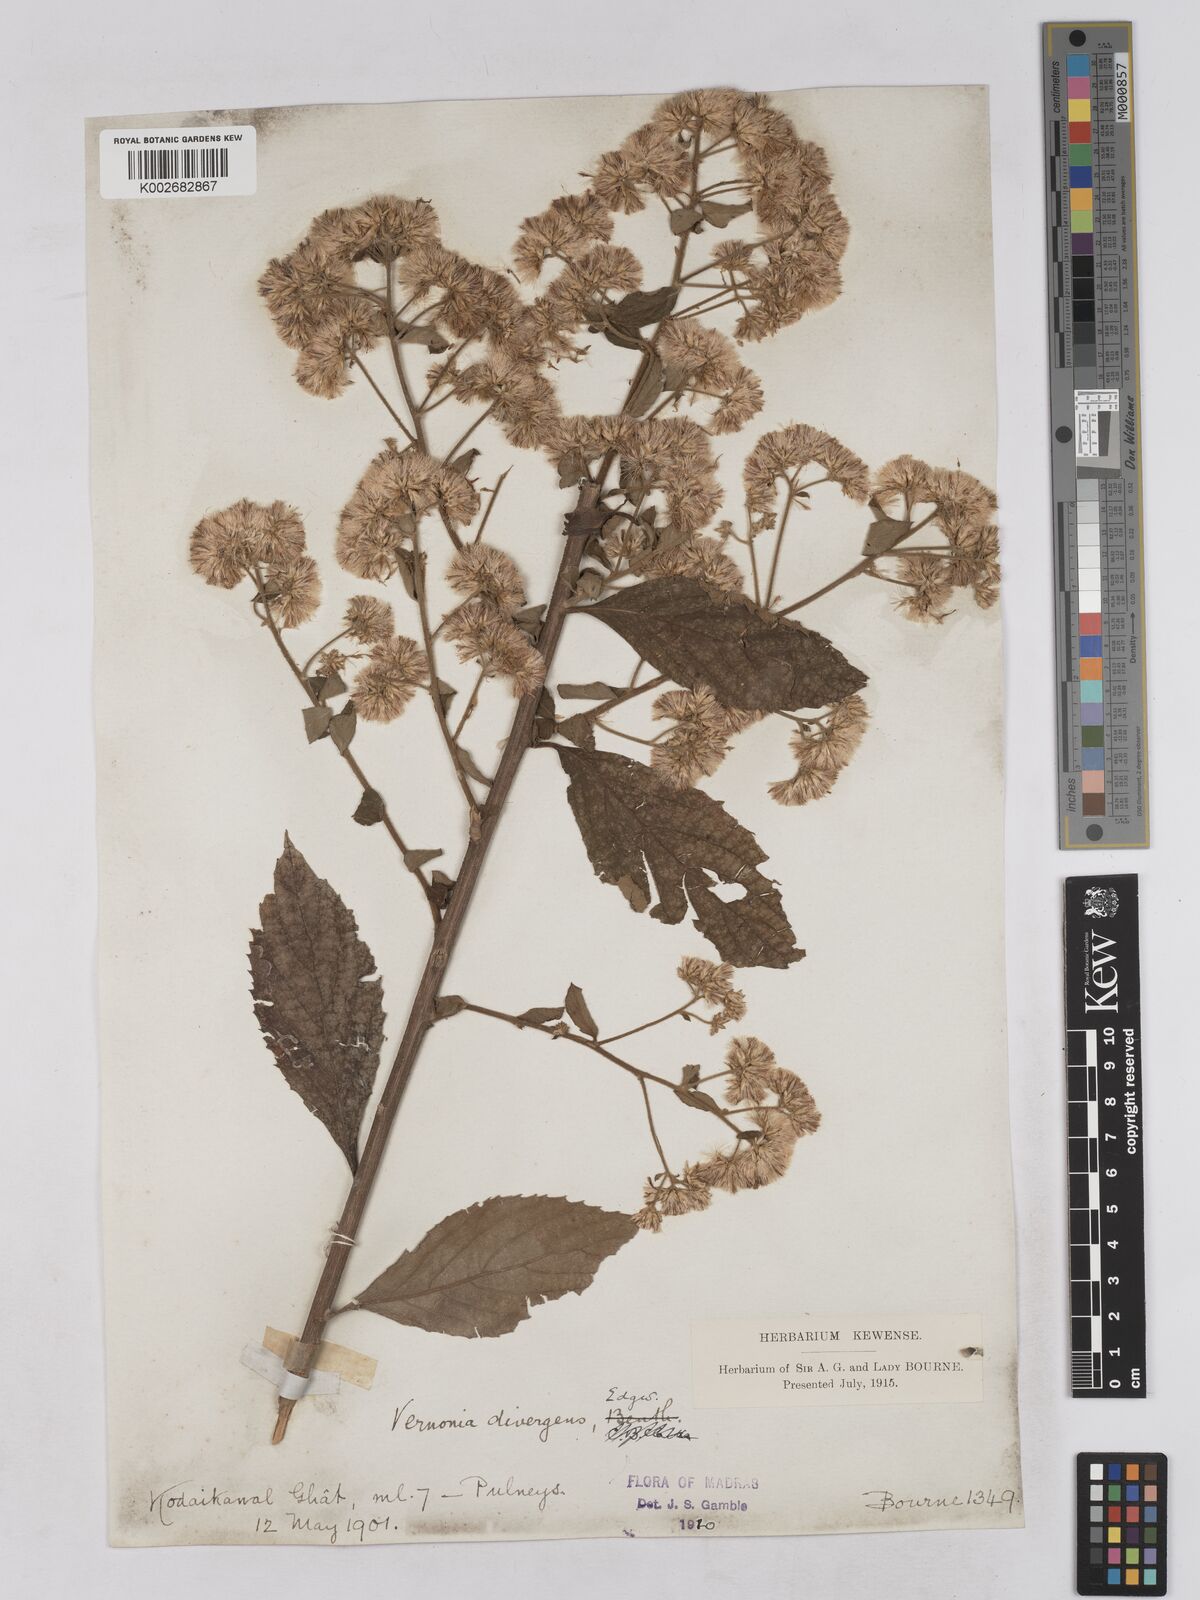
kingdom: Plantae
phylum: Tracheophyta
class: Magnoliopsida
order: Asterales
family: Asteraceae
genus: Acilepis
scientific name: Acilepis divergens
